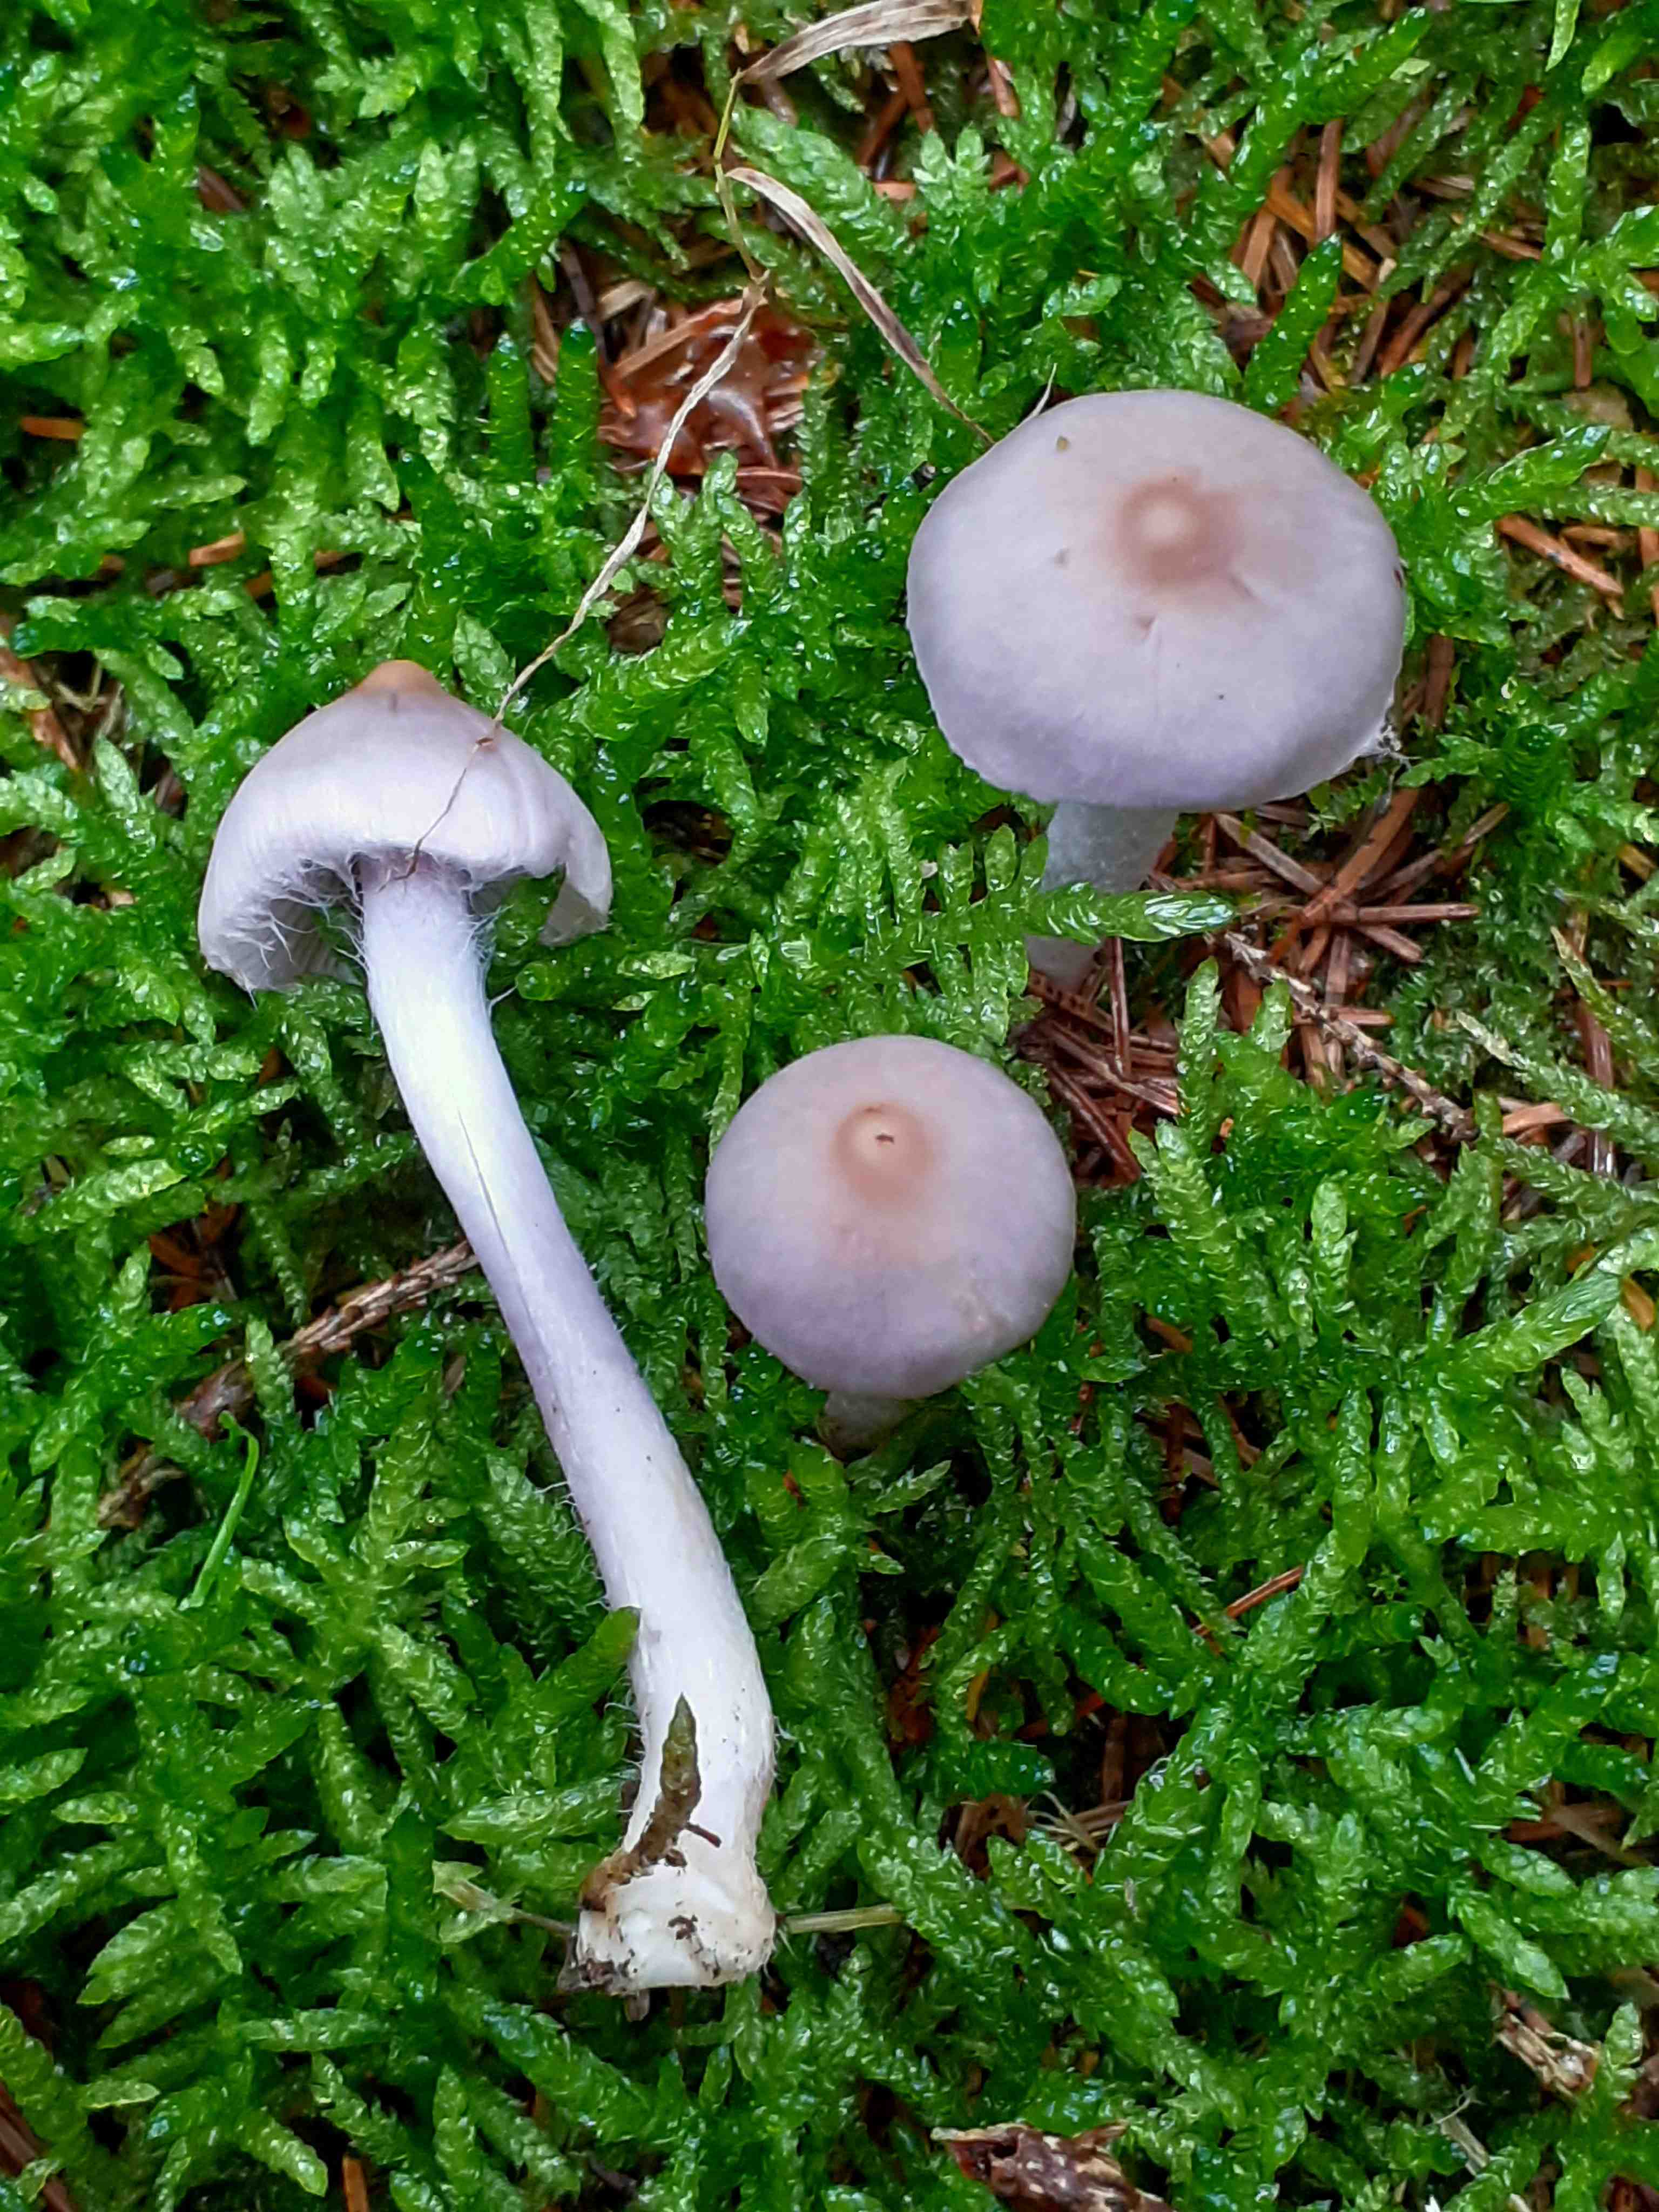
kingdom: Fungi
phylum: Basidiomycota
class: Agaricomycetes
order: Agaricales
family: Inocybaceae
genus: Inocybe
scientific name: Inocybe geophylla
